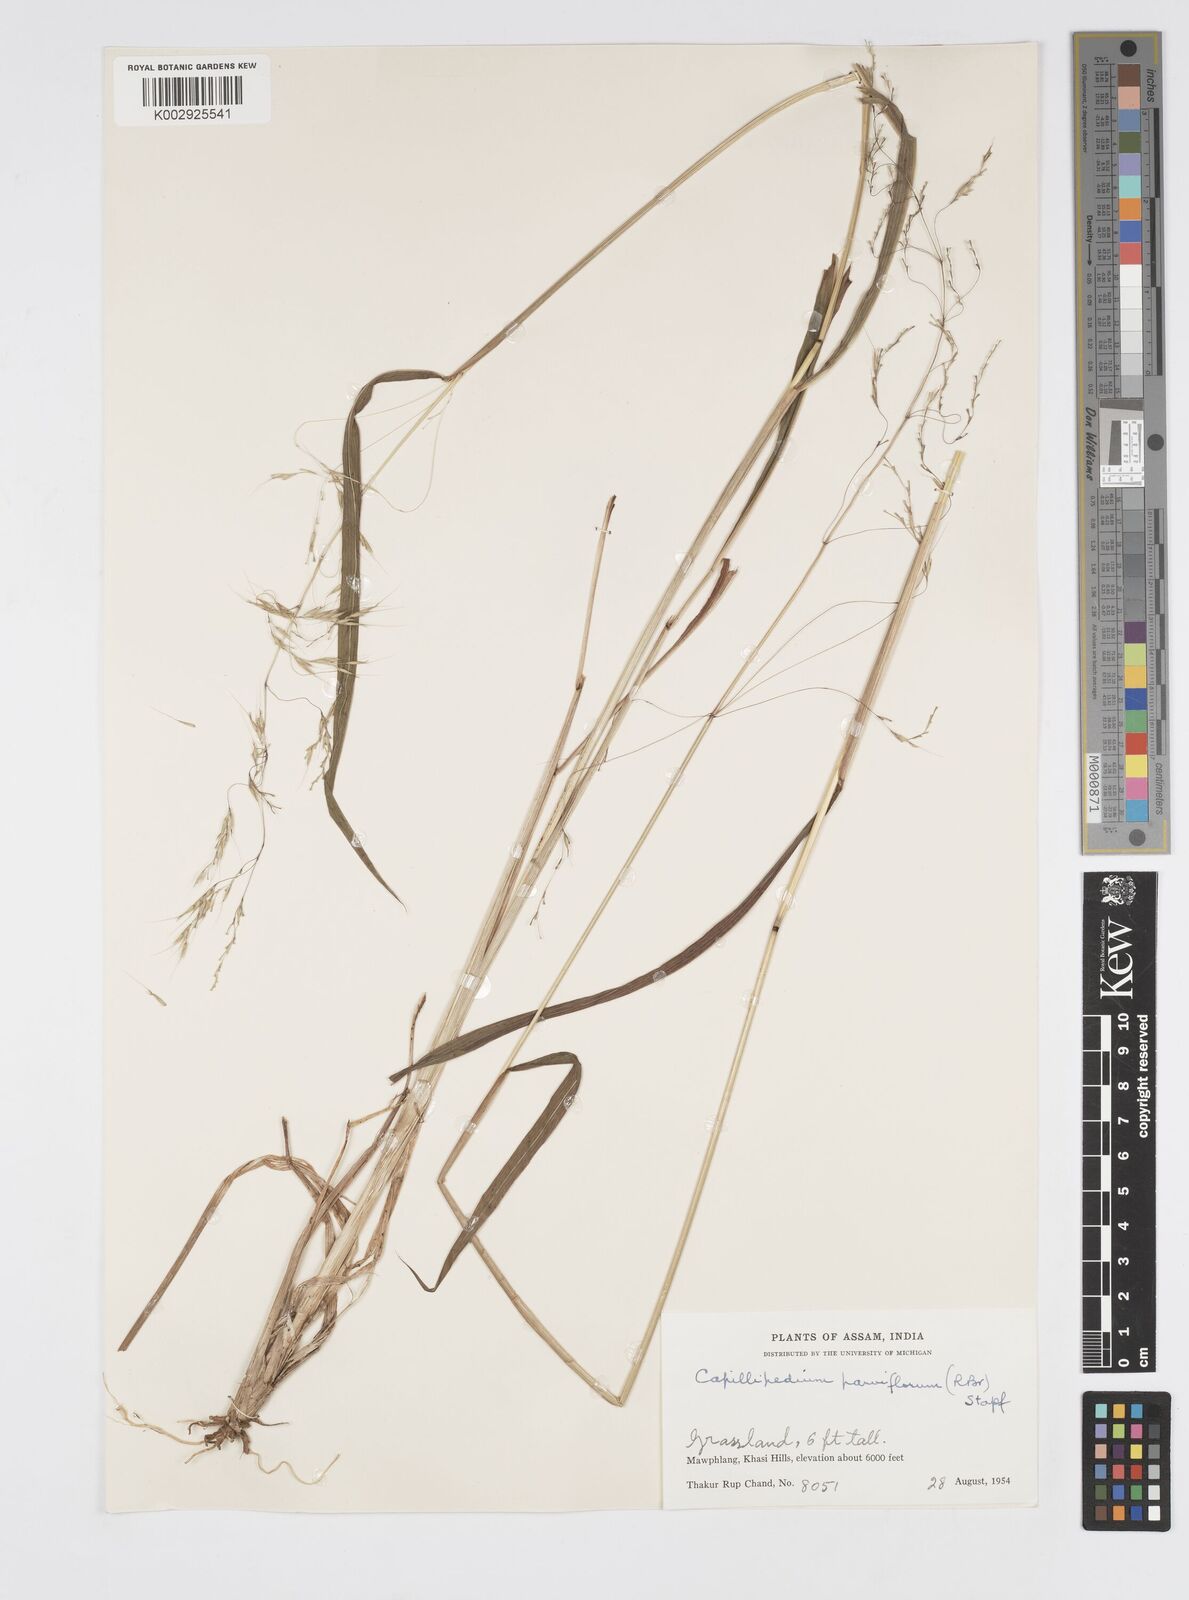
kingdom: Plantae
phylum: Tracheophyta
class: Liliopsida
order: Poales
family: Poaceae
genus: Spodiopogon
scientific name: Spodiopogon cotulifer
